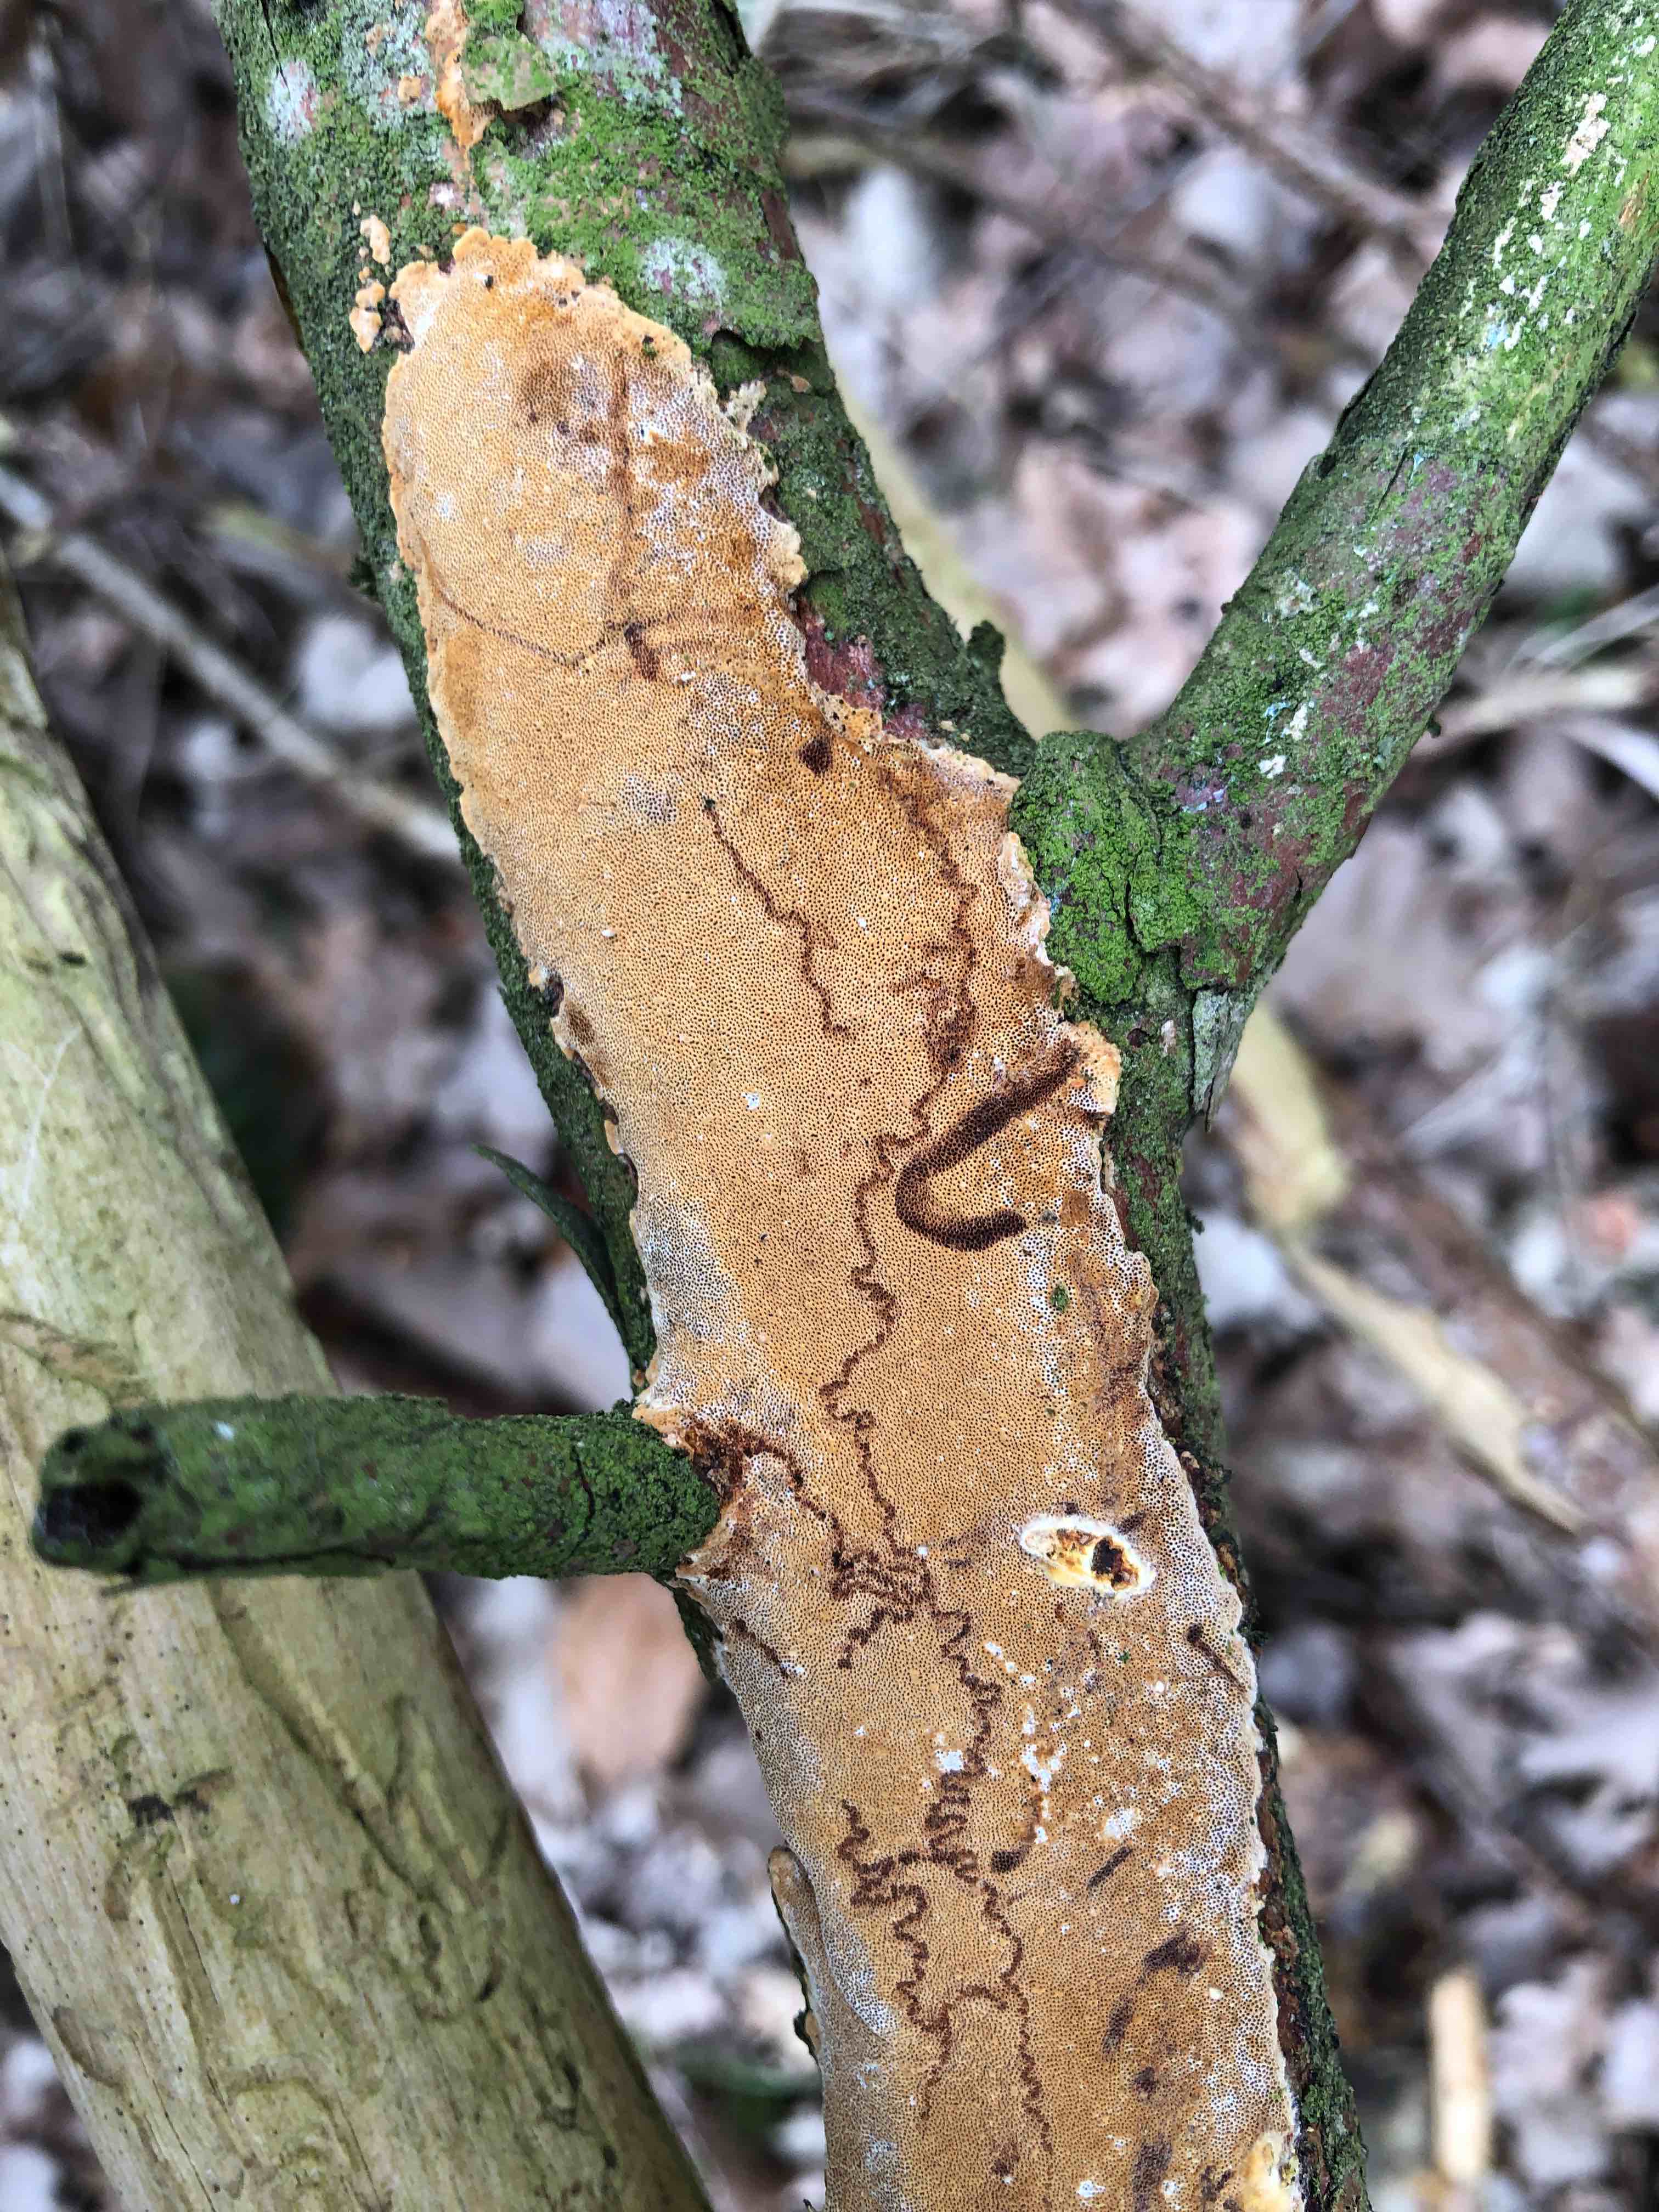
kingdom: Fungi
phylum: Basidiomycota
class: Agaricomycetes
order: Hymenochaetales
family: Hymenochaetaceae
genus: Fuscoporia
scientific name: Fuscoporia ferrea
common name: skorpe-ildporesvamp
